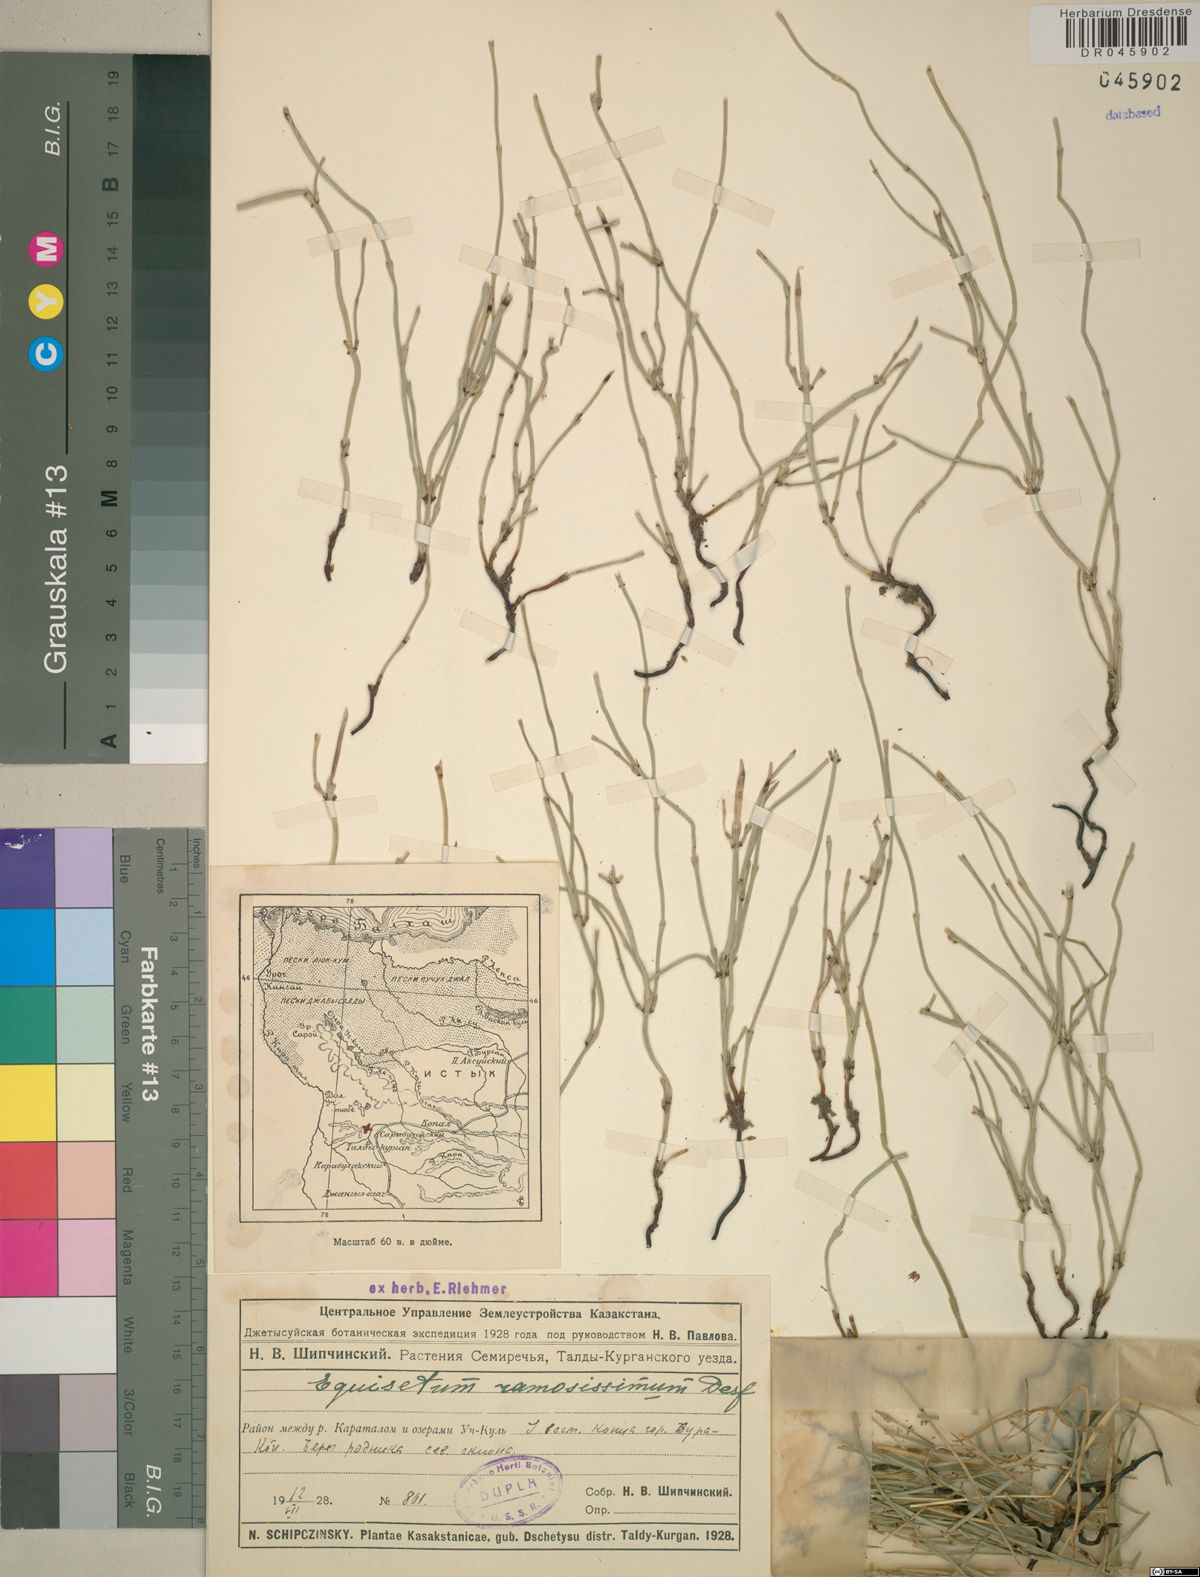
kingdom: Plantae
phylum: Tracheophyta
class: Polypodiopsida
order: Equisetales
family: Equisetaceae
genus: Equisetum
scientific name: Equisetum ramosissimum
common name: Branched horsetail
